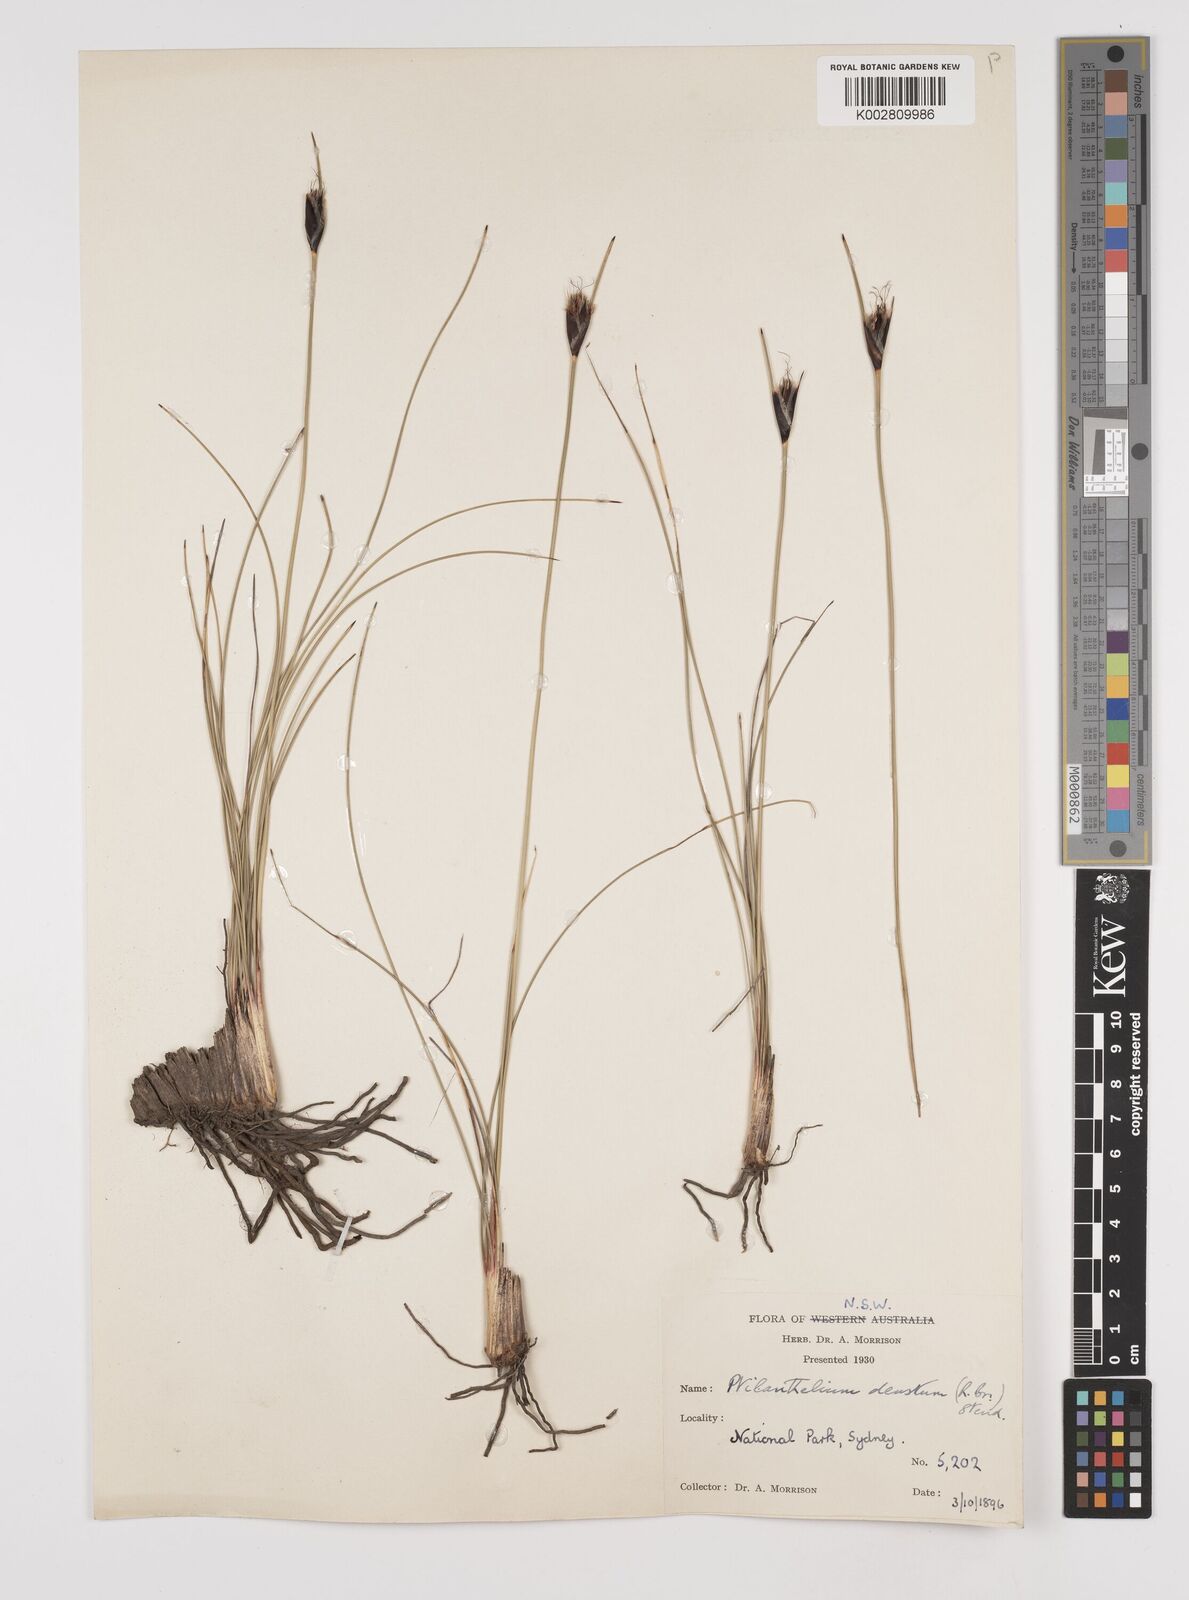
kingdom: Plantae
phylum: Tracheophyta
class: Liliopsida
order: Poales
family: Cyperaceae
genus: Ptilothrix
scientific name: Ptilothrix deusta
